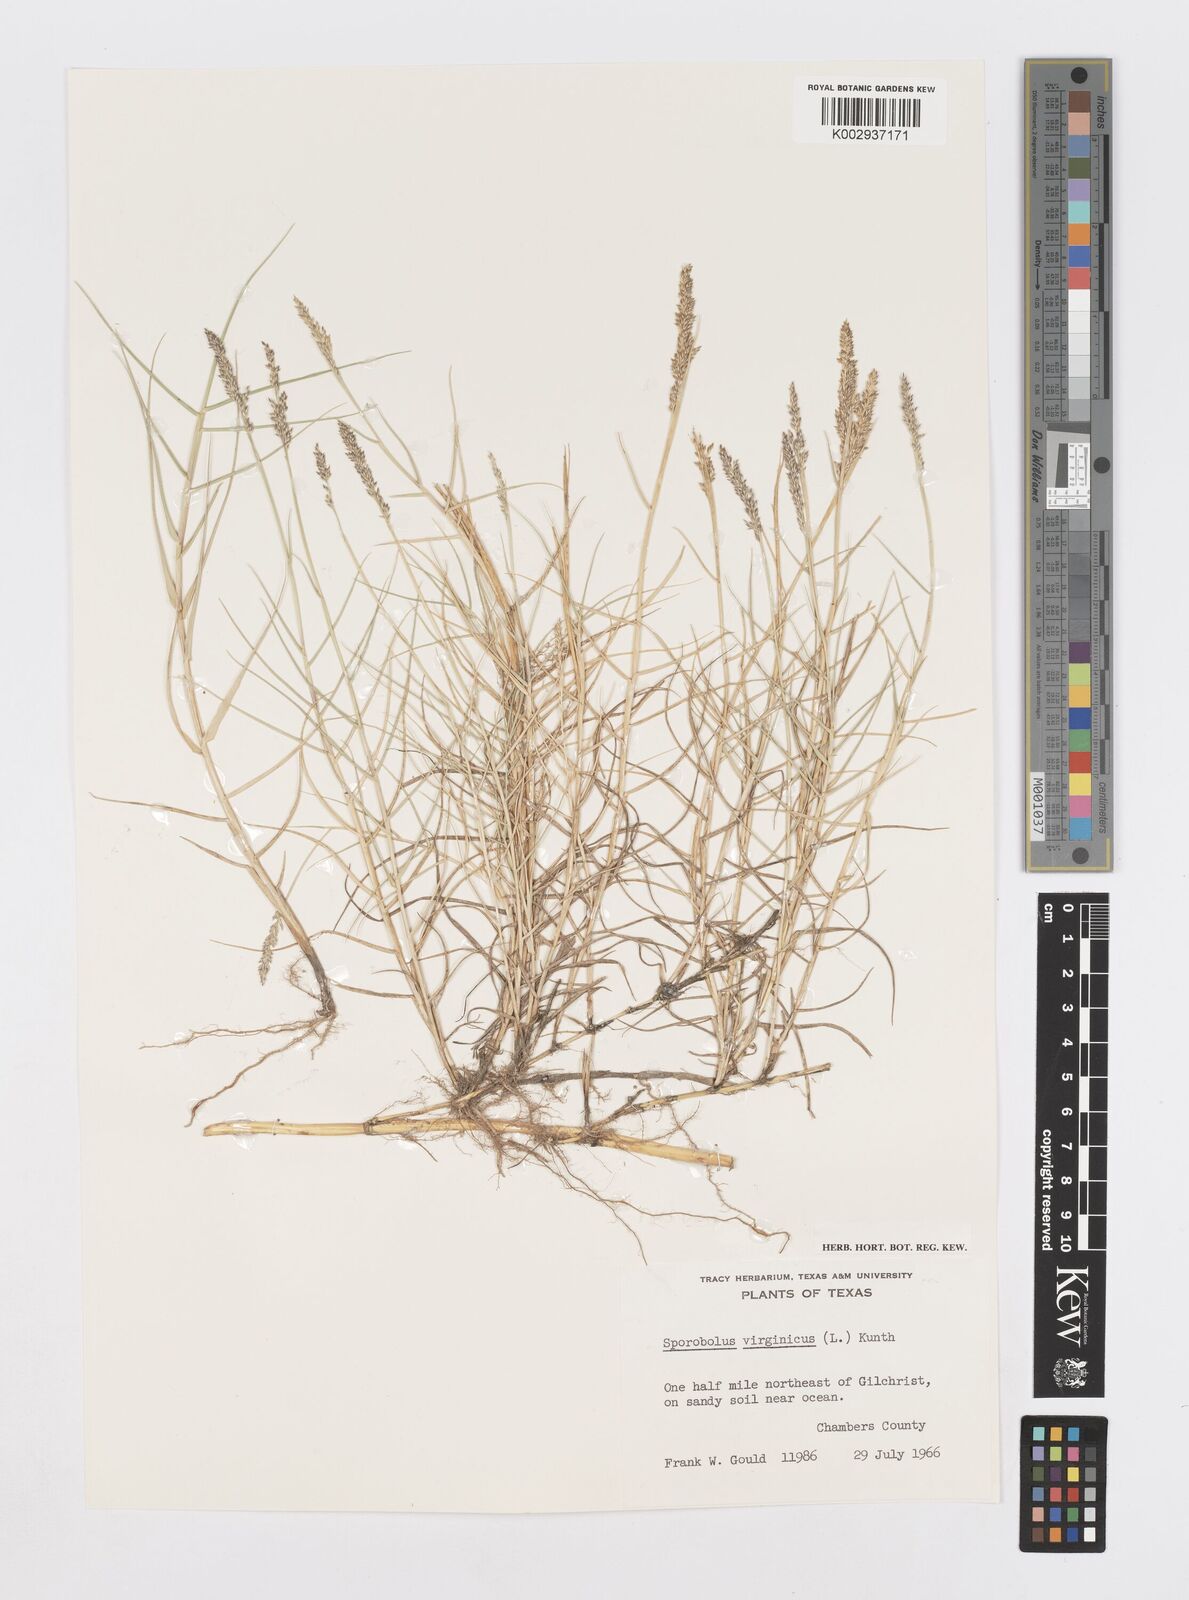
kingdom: Plantae
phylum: Tracheophyta
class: Liliopsida
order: Poales
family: Poaceae
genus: Sporobolus
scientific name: Sporobolus virginicus
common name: Beach dropseed
